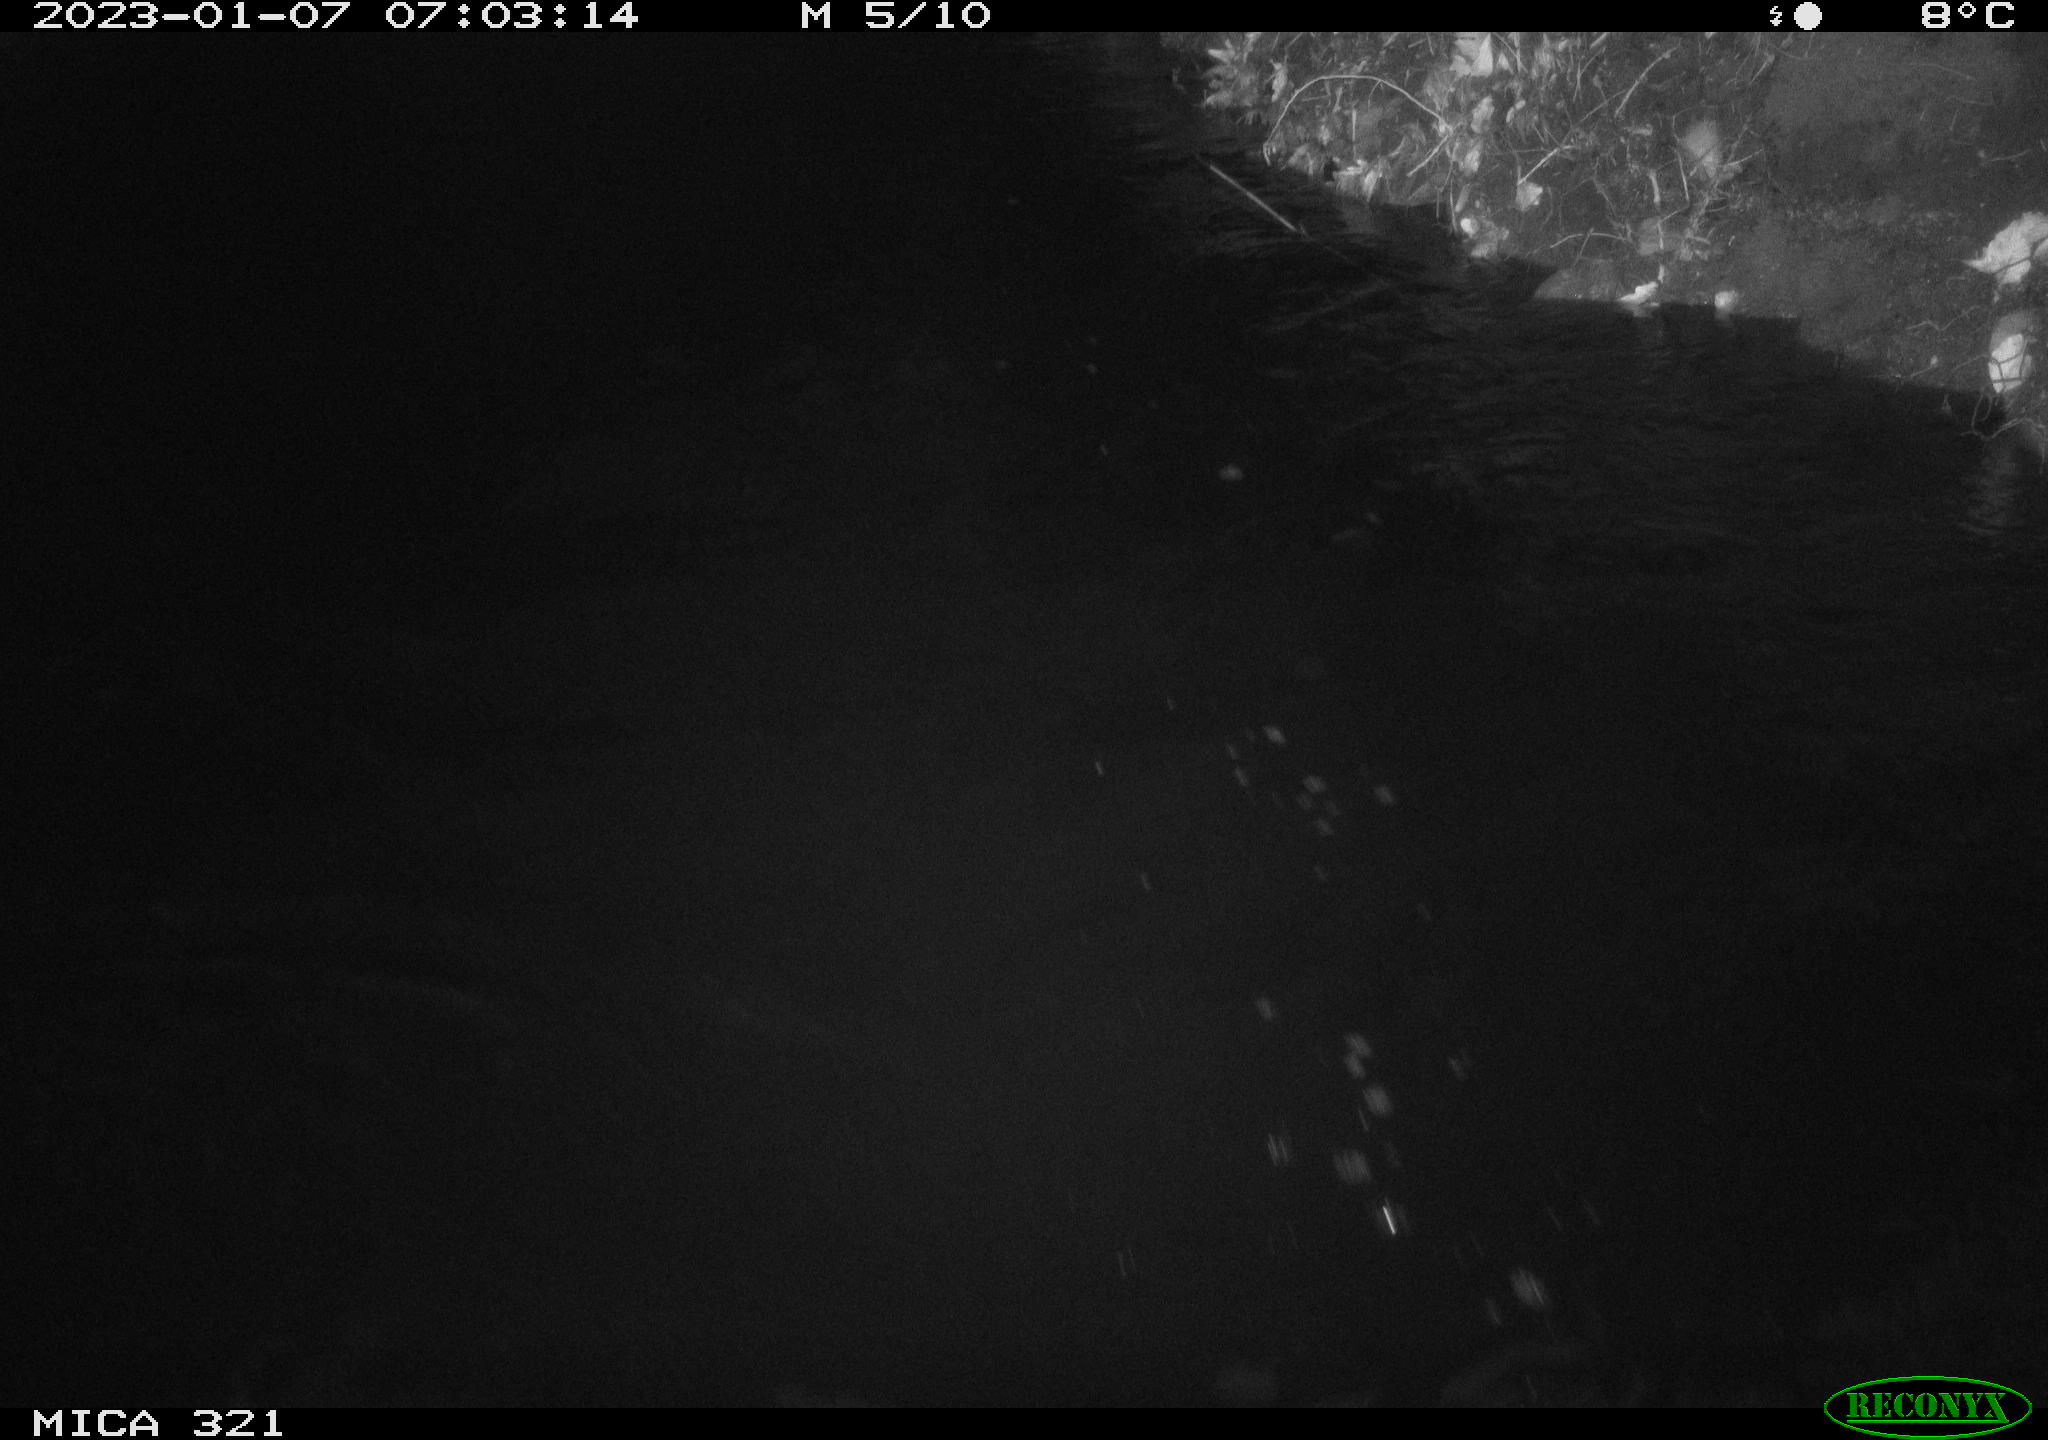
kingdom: Animalia
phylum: Chordata
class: Aves
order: Anseriformes
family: Anatidae
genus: Anas
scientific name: Anas
